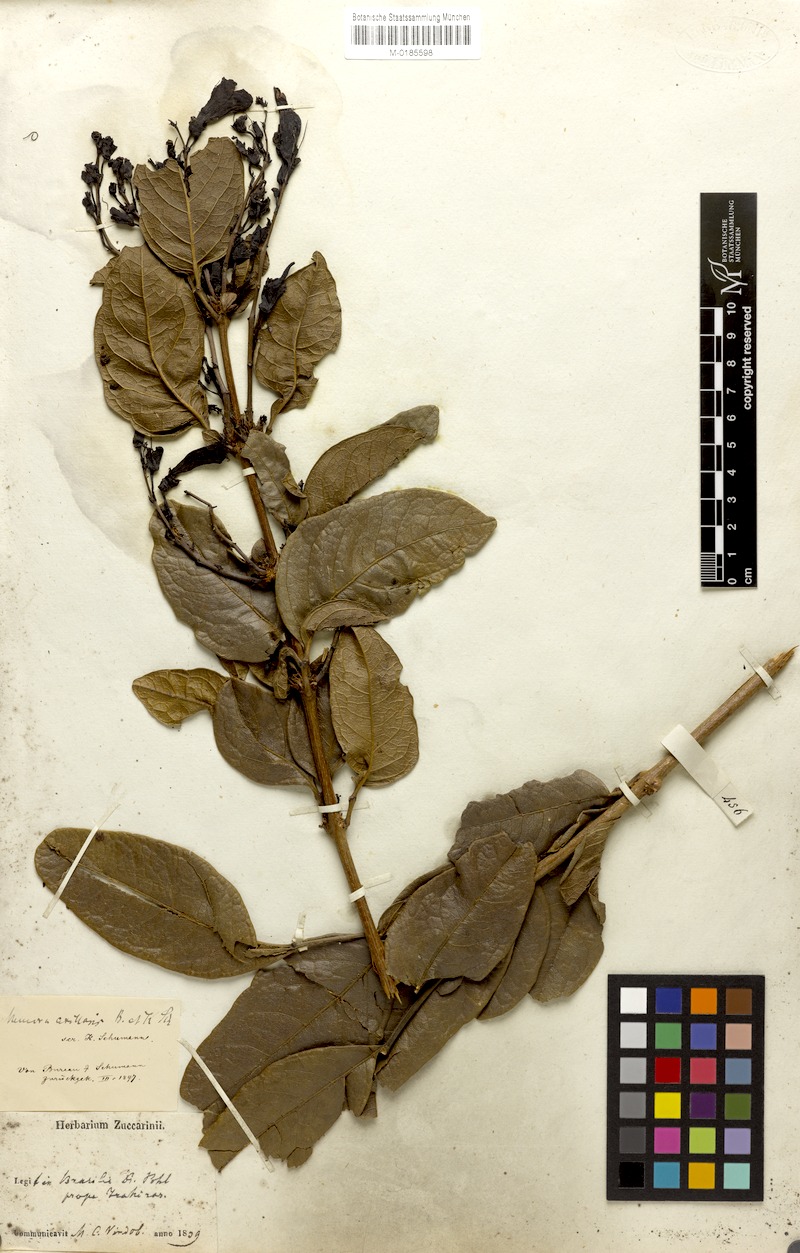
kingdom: Plantae
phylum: Tracheophyta
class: Magnoliopsida
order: Lamiales
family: Bignoniaceae
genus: Adenocalymma
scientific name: Adenocalymma axillarum
